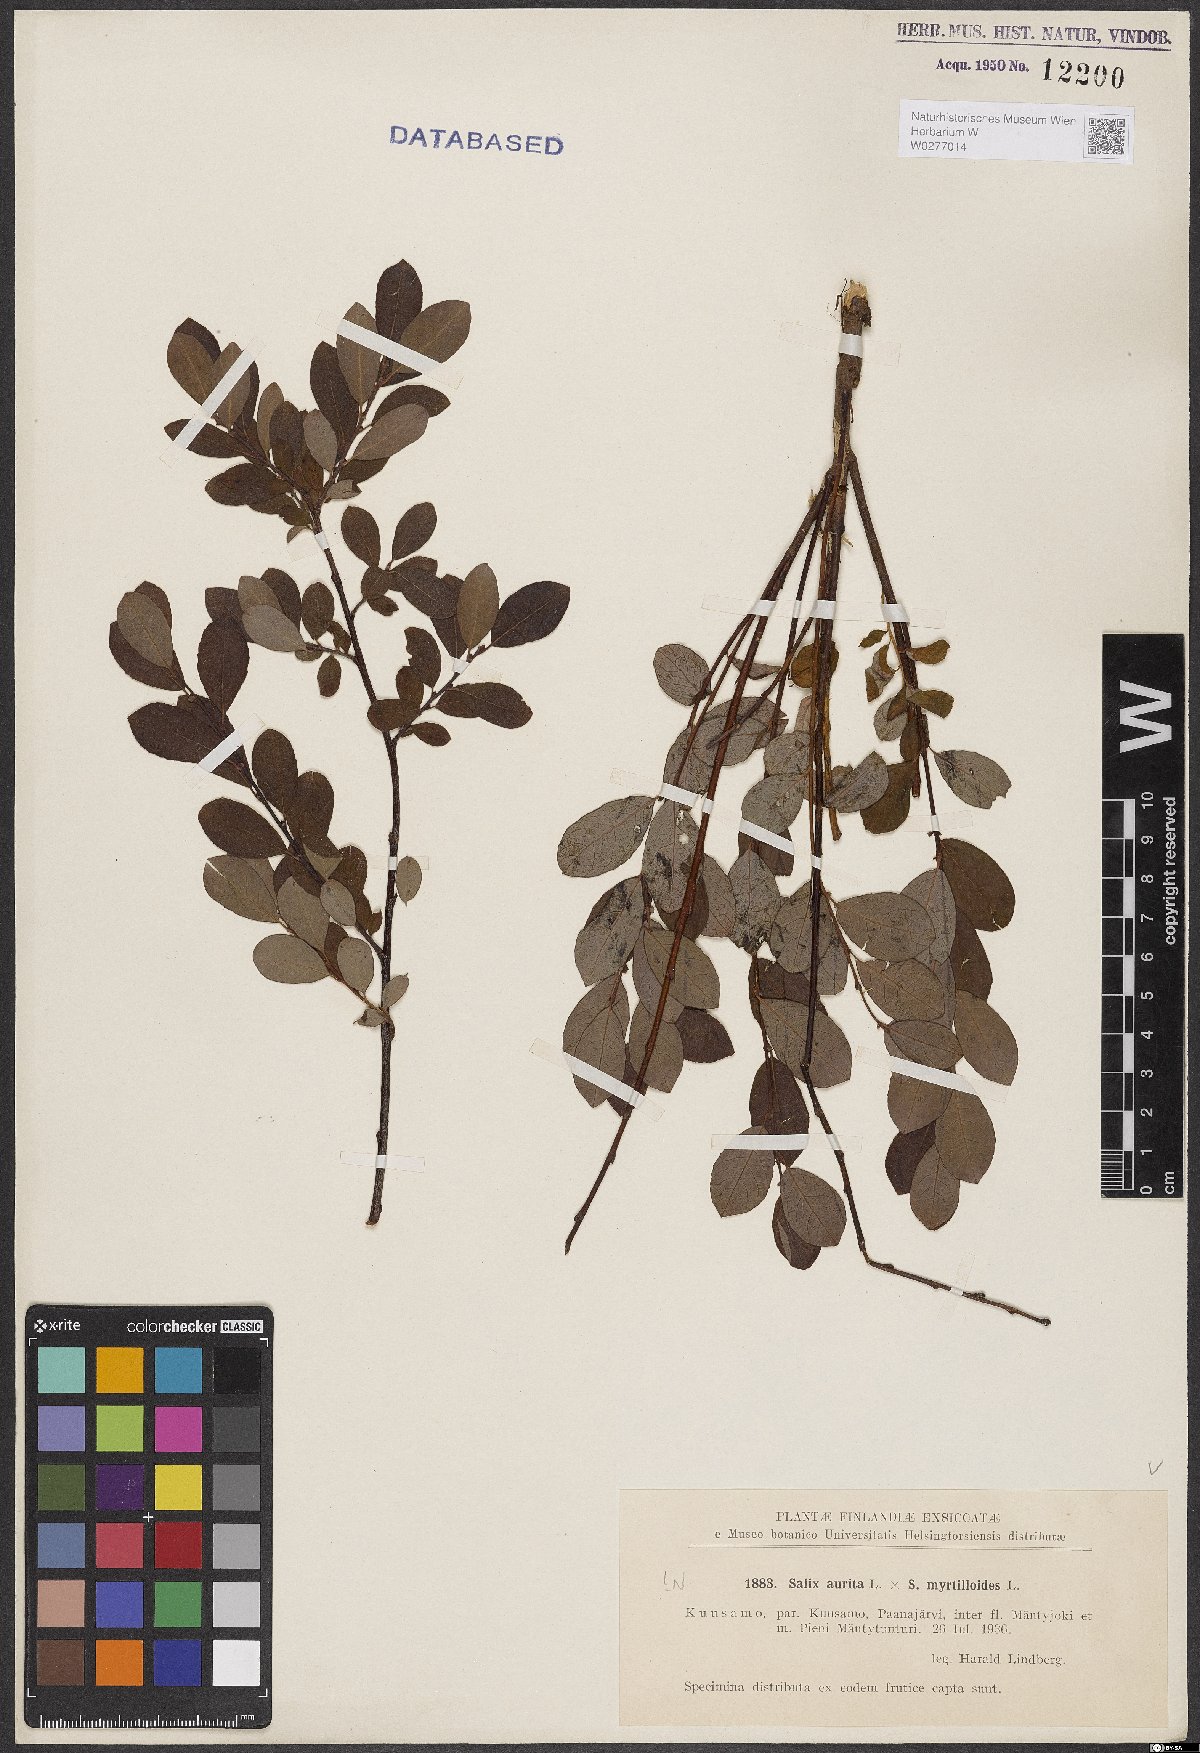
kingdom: Plantae
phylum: Tracheophyta
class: Magnoliopsida
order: Malpighiales
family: Salicaceae
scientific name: Salicaceae
